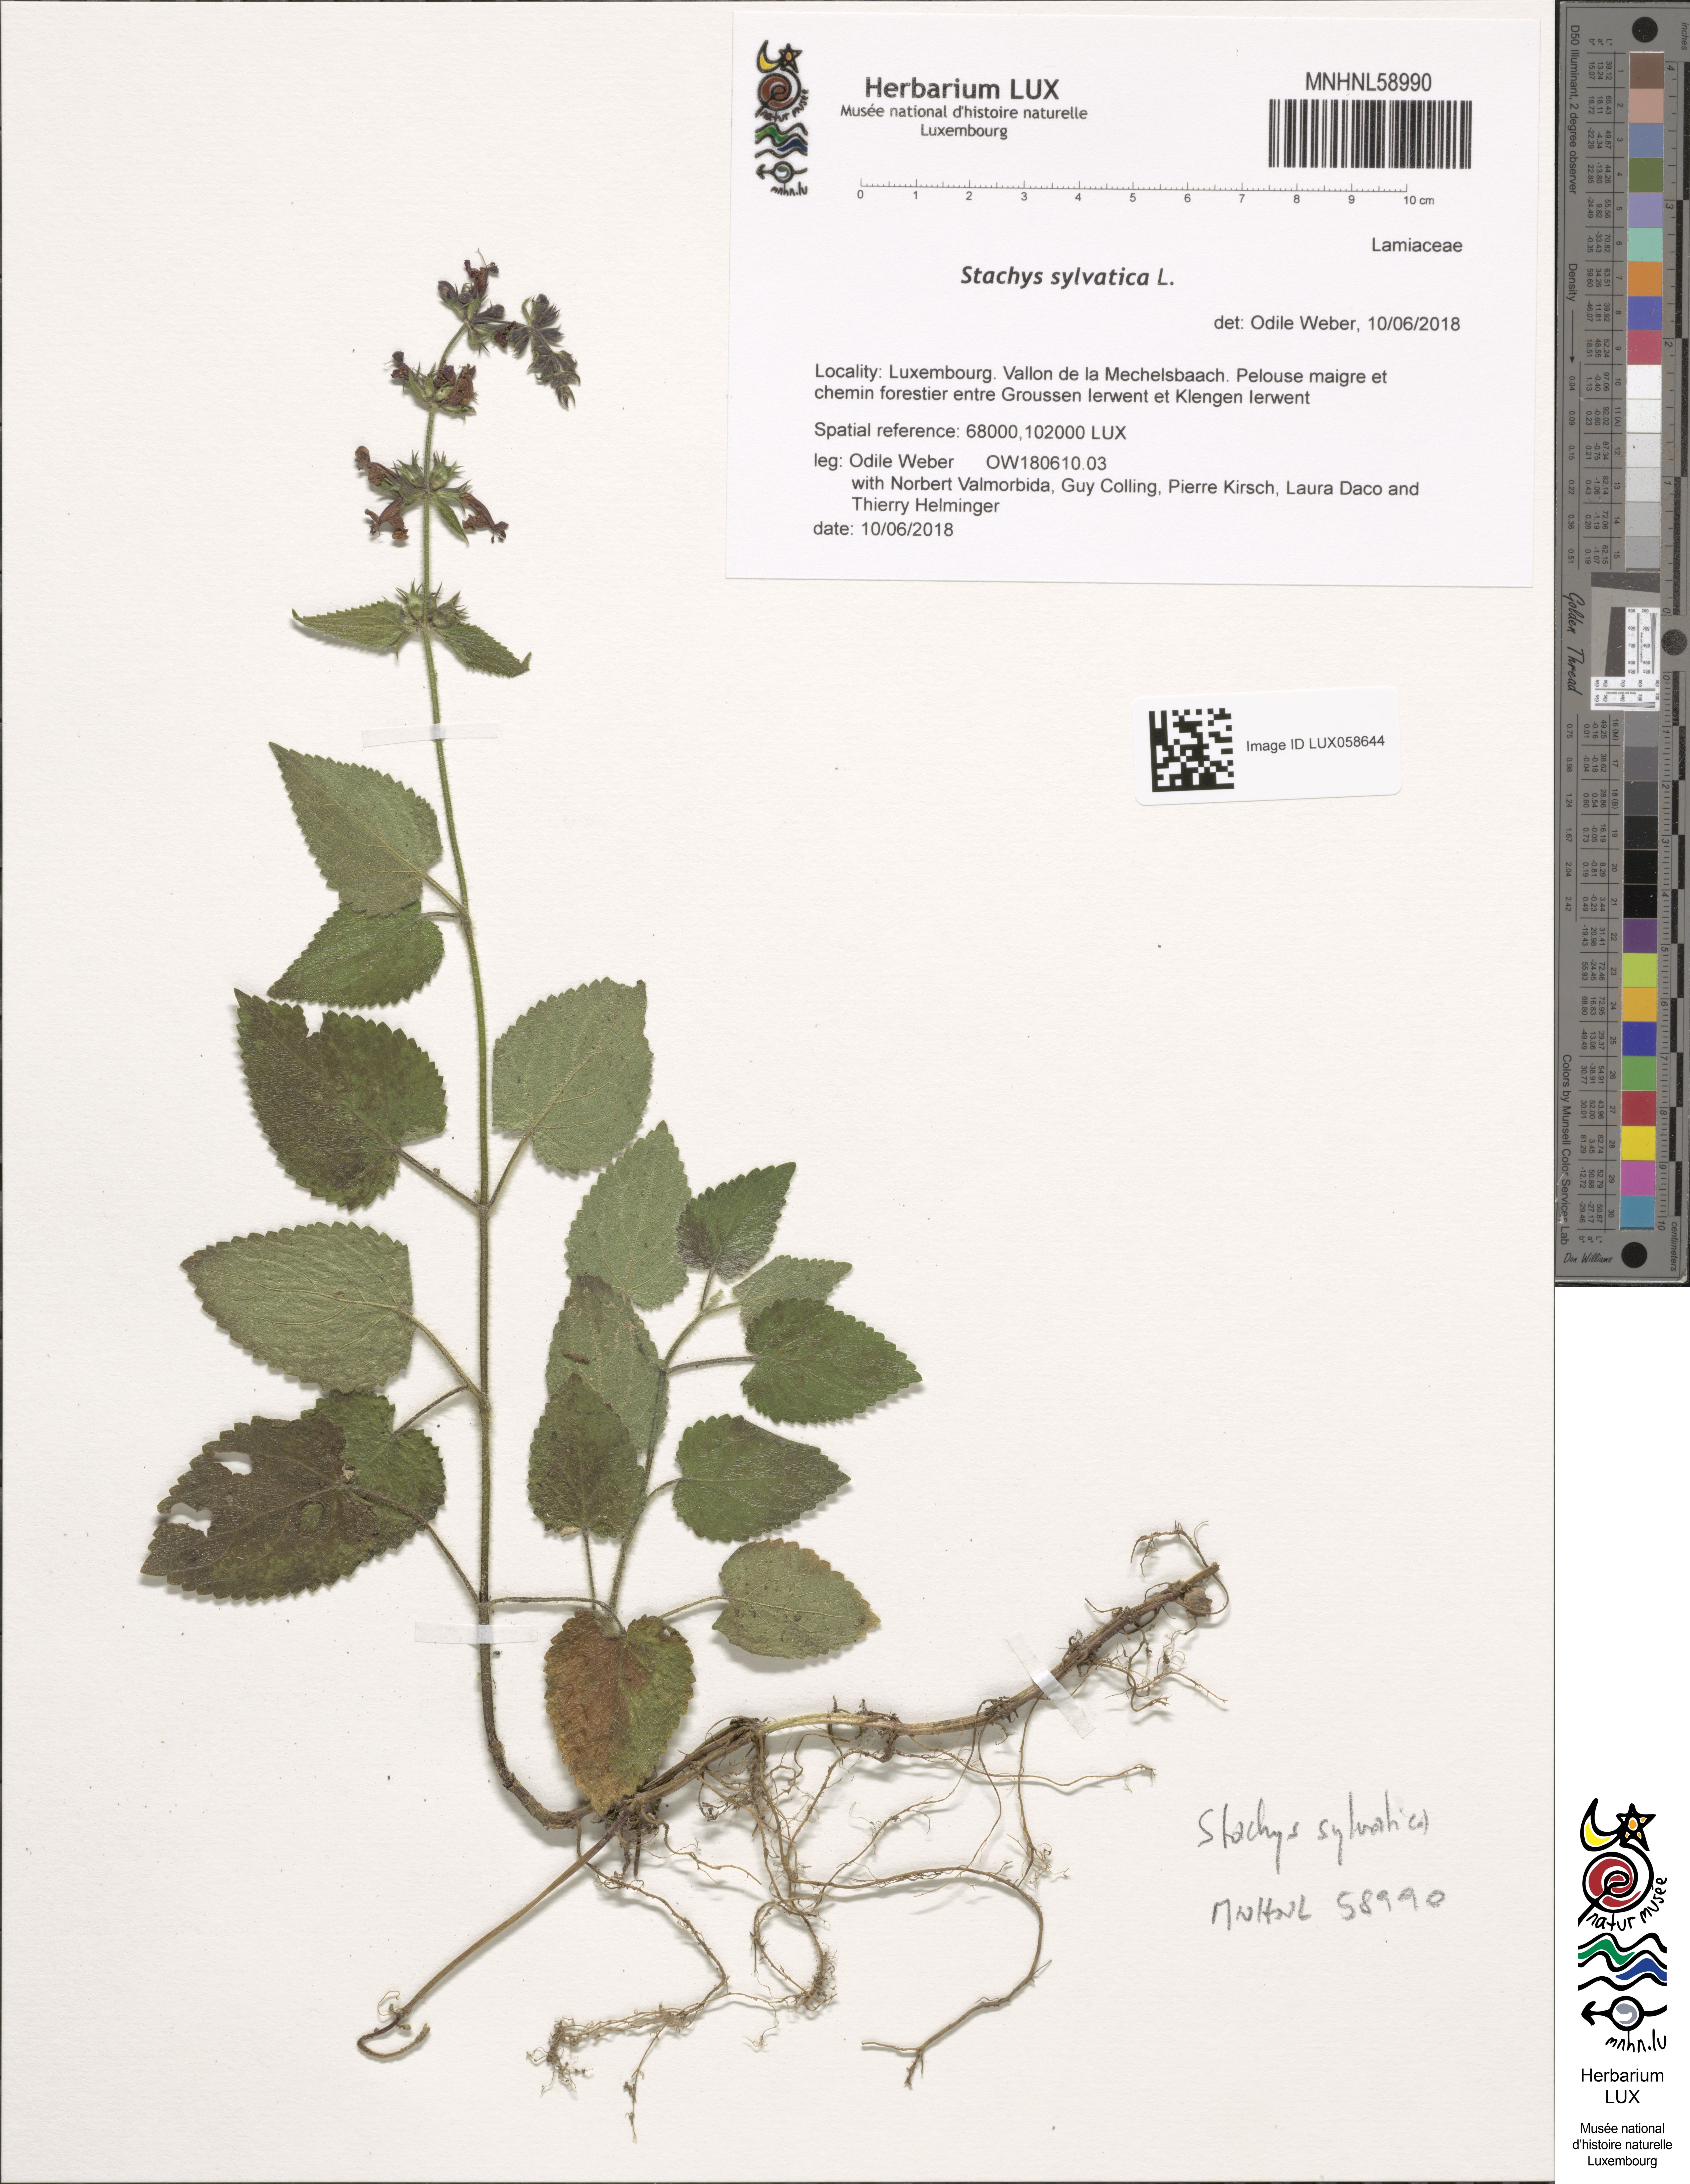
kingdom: Plantae
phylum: Tracheophyta
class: Magnoliopsida
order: Lamiales
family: Lamiaceae
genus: Stachys
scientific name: Stachys sylvatica
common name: Hedge woundwort
